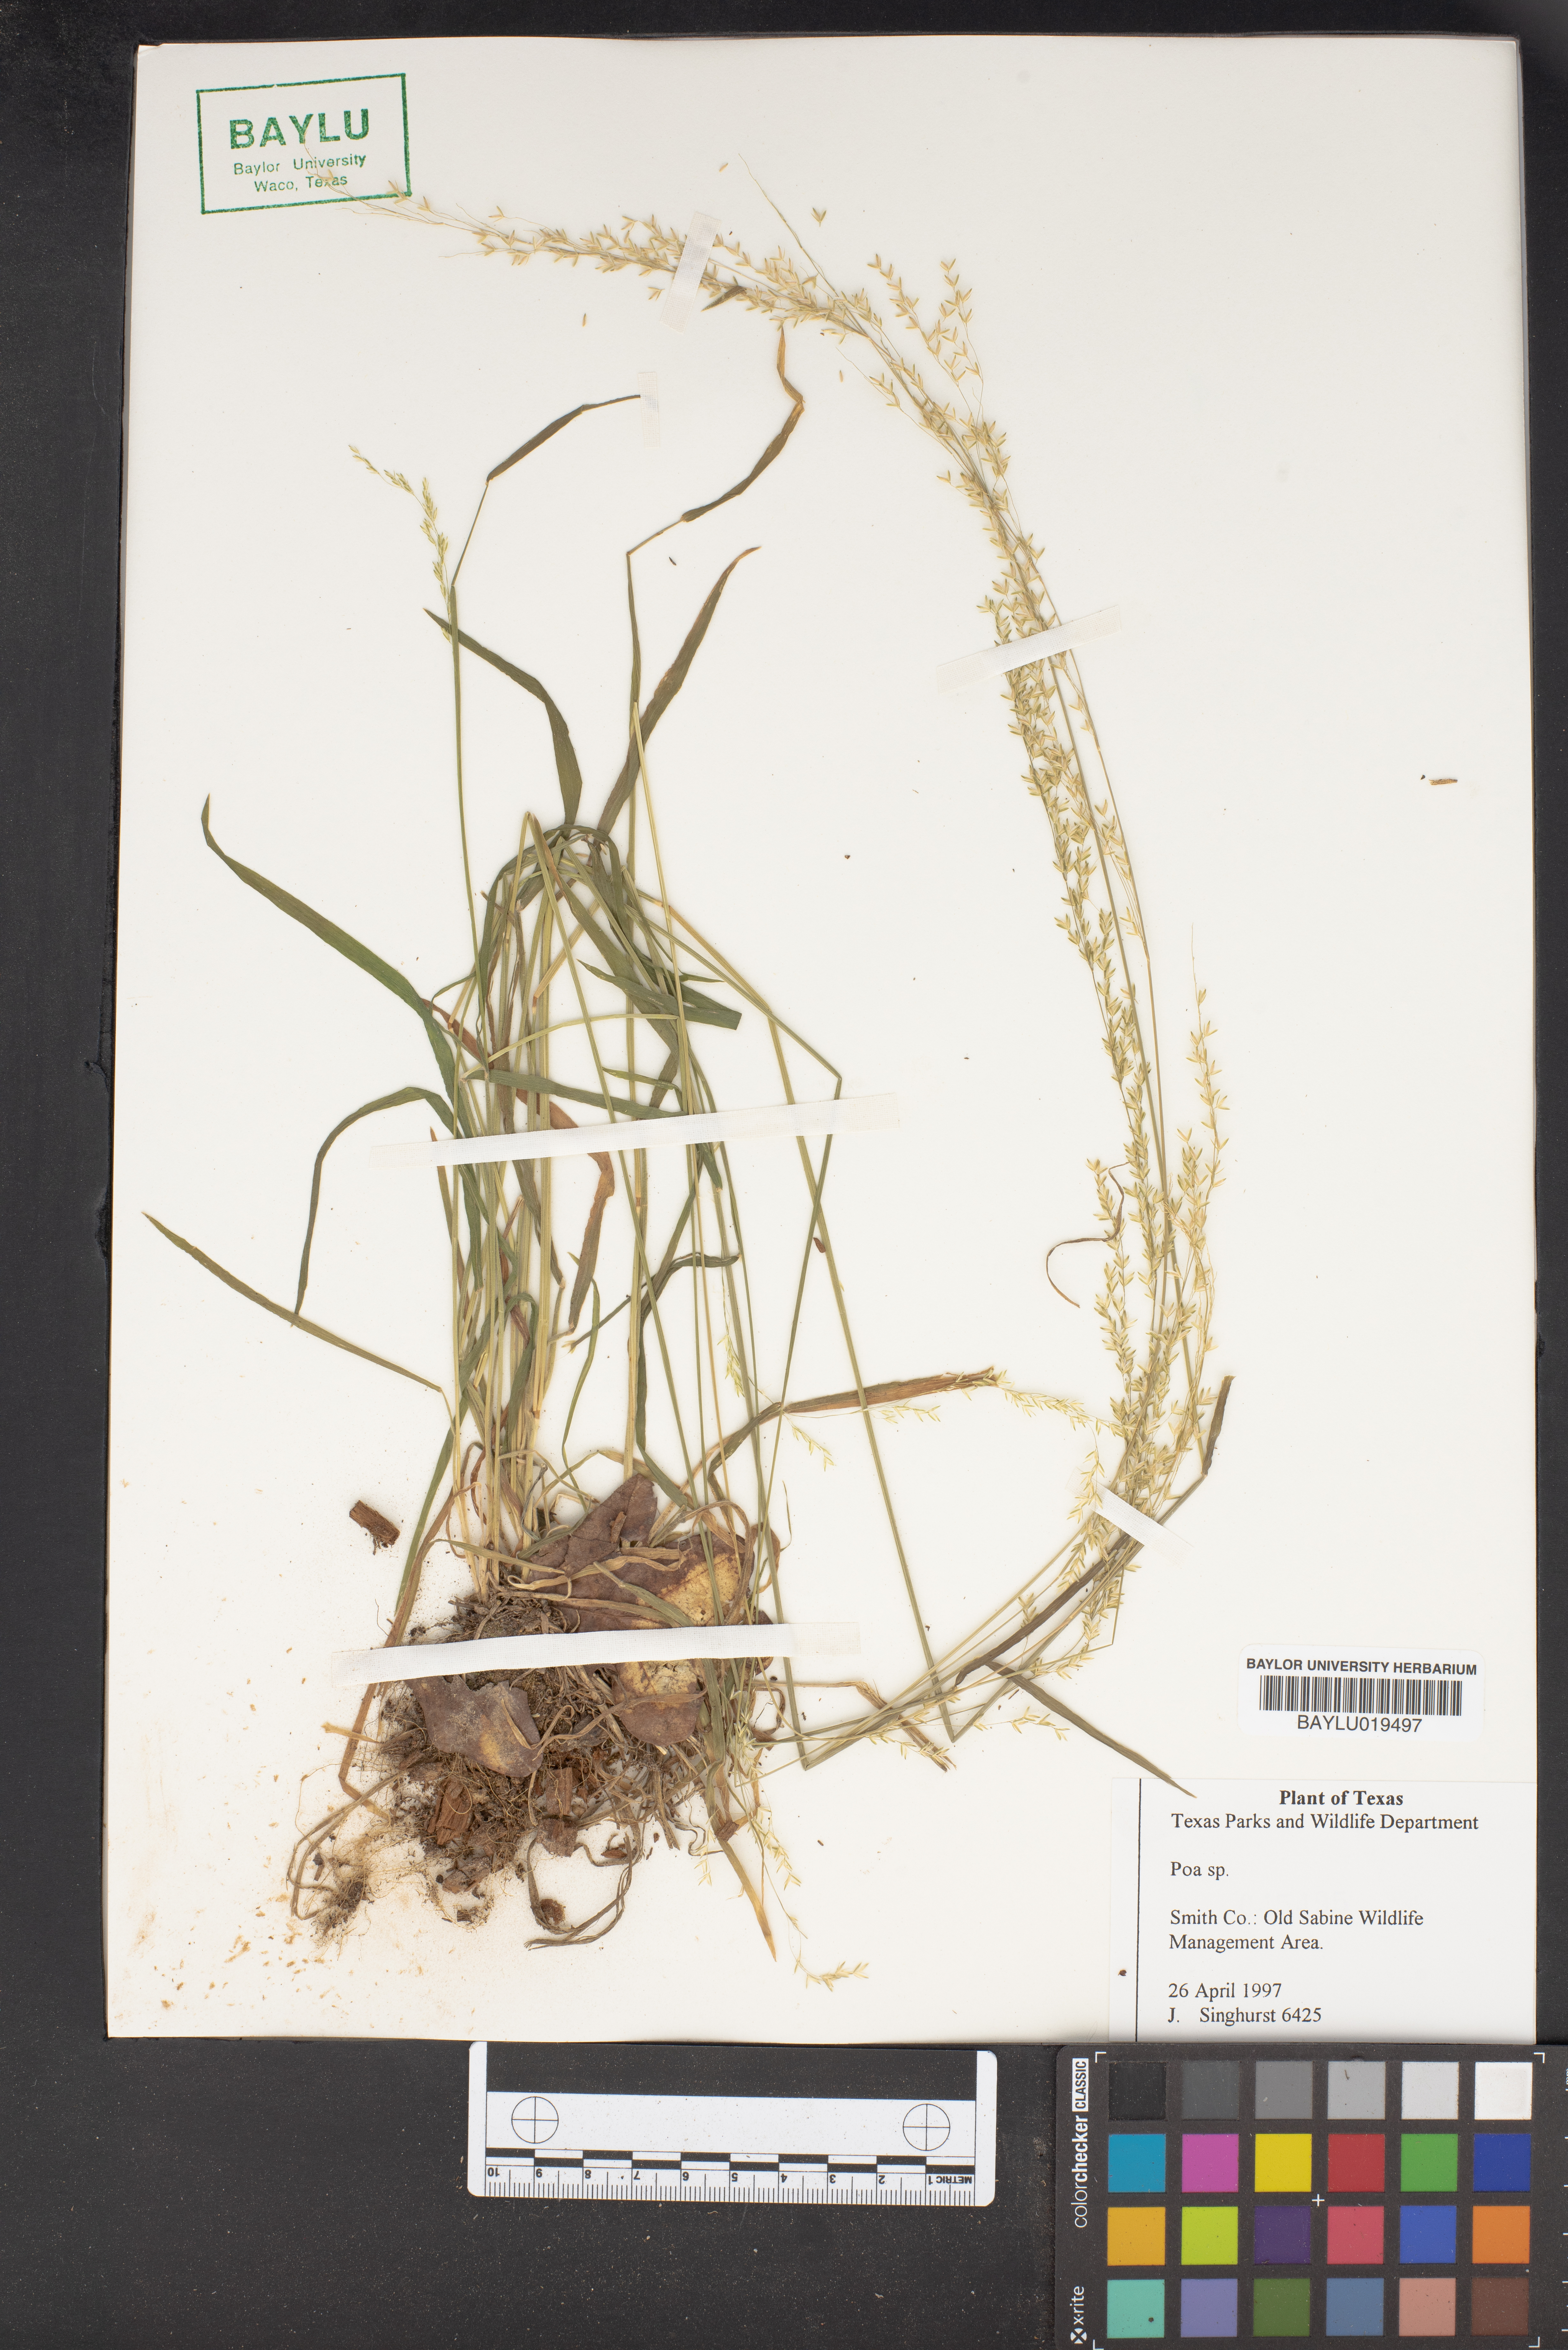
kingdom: Plantae
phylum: Tracheophyta
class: Liliopsida
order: Poales
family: Poaceae
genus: Poa
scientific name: Poa
